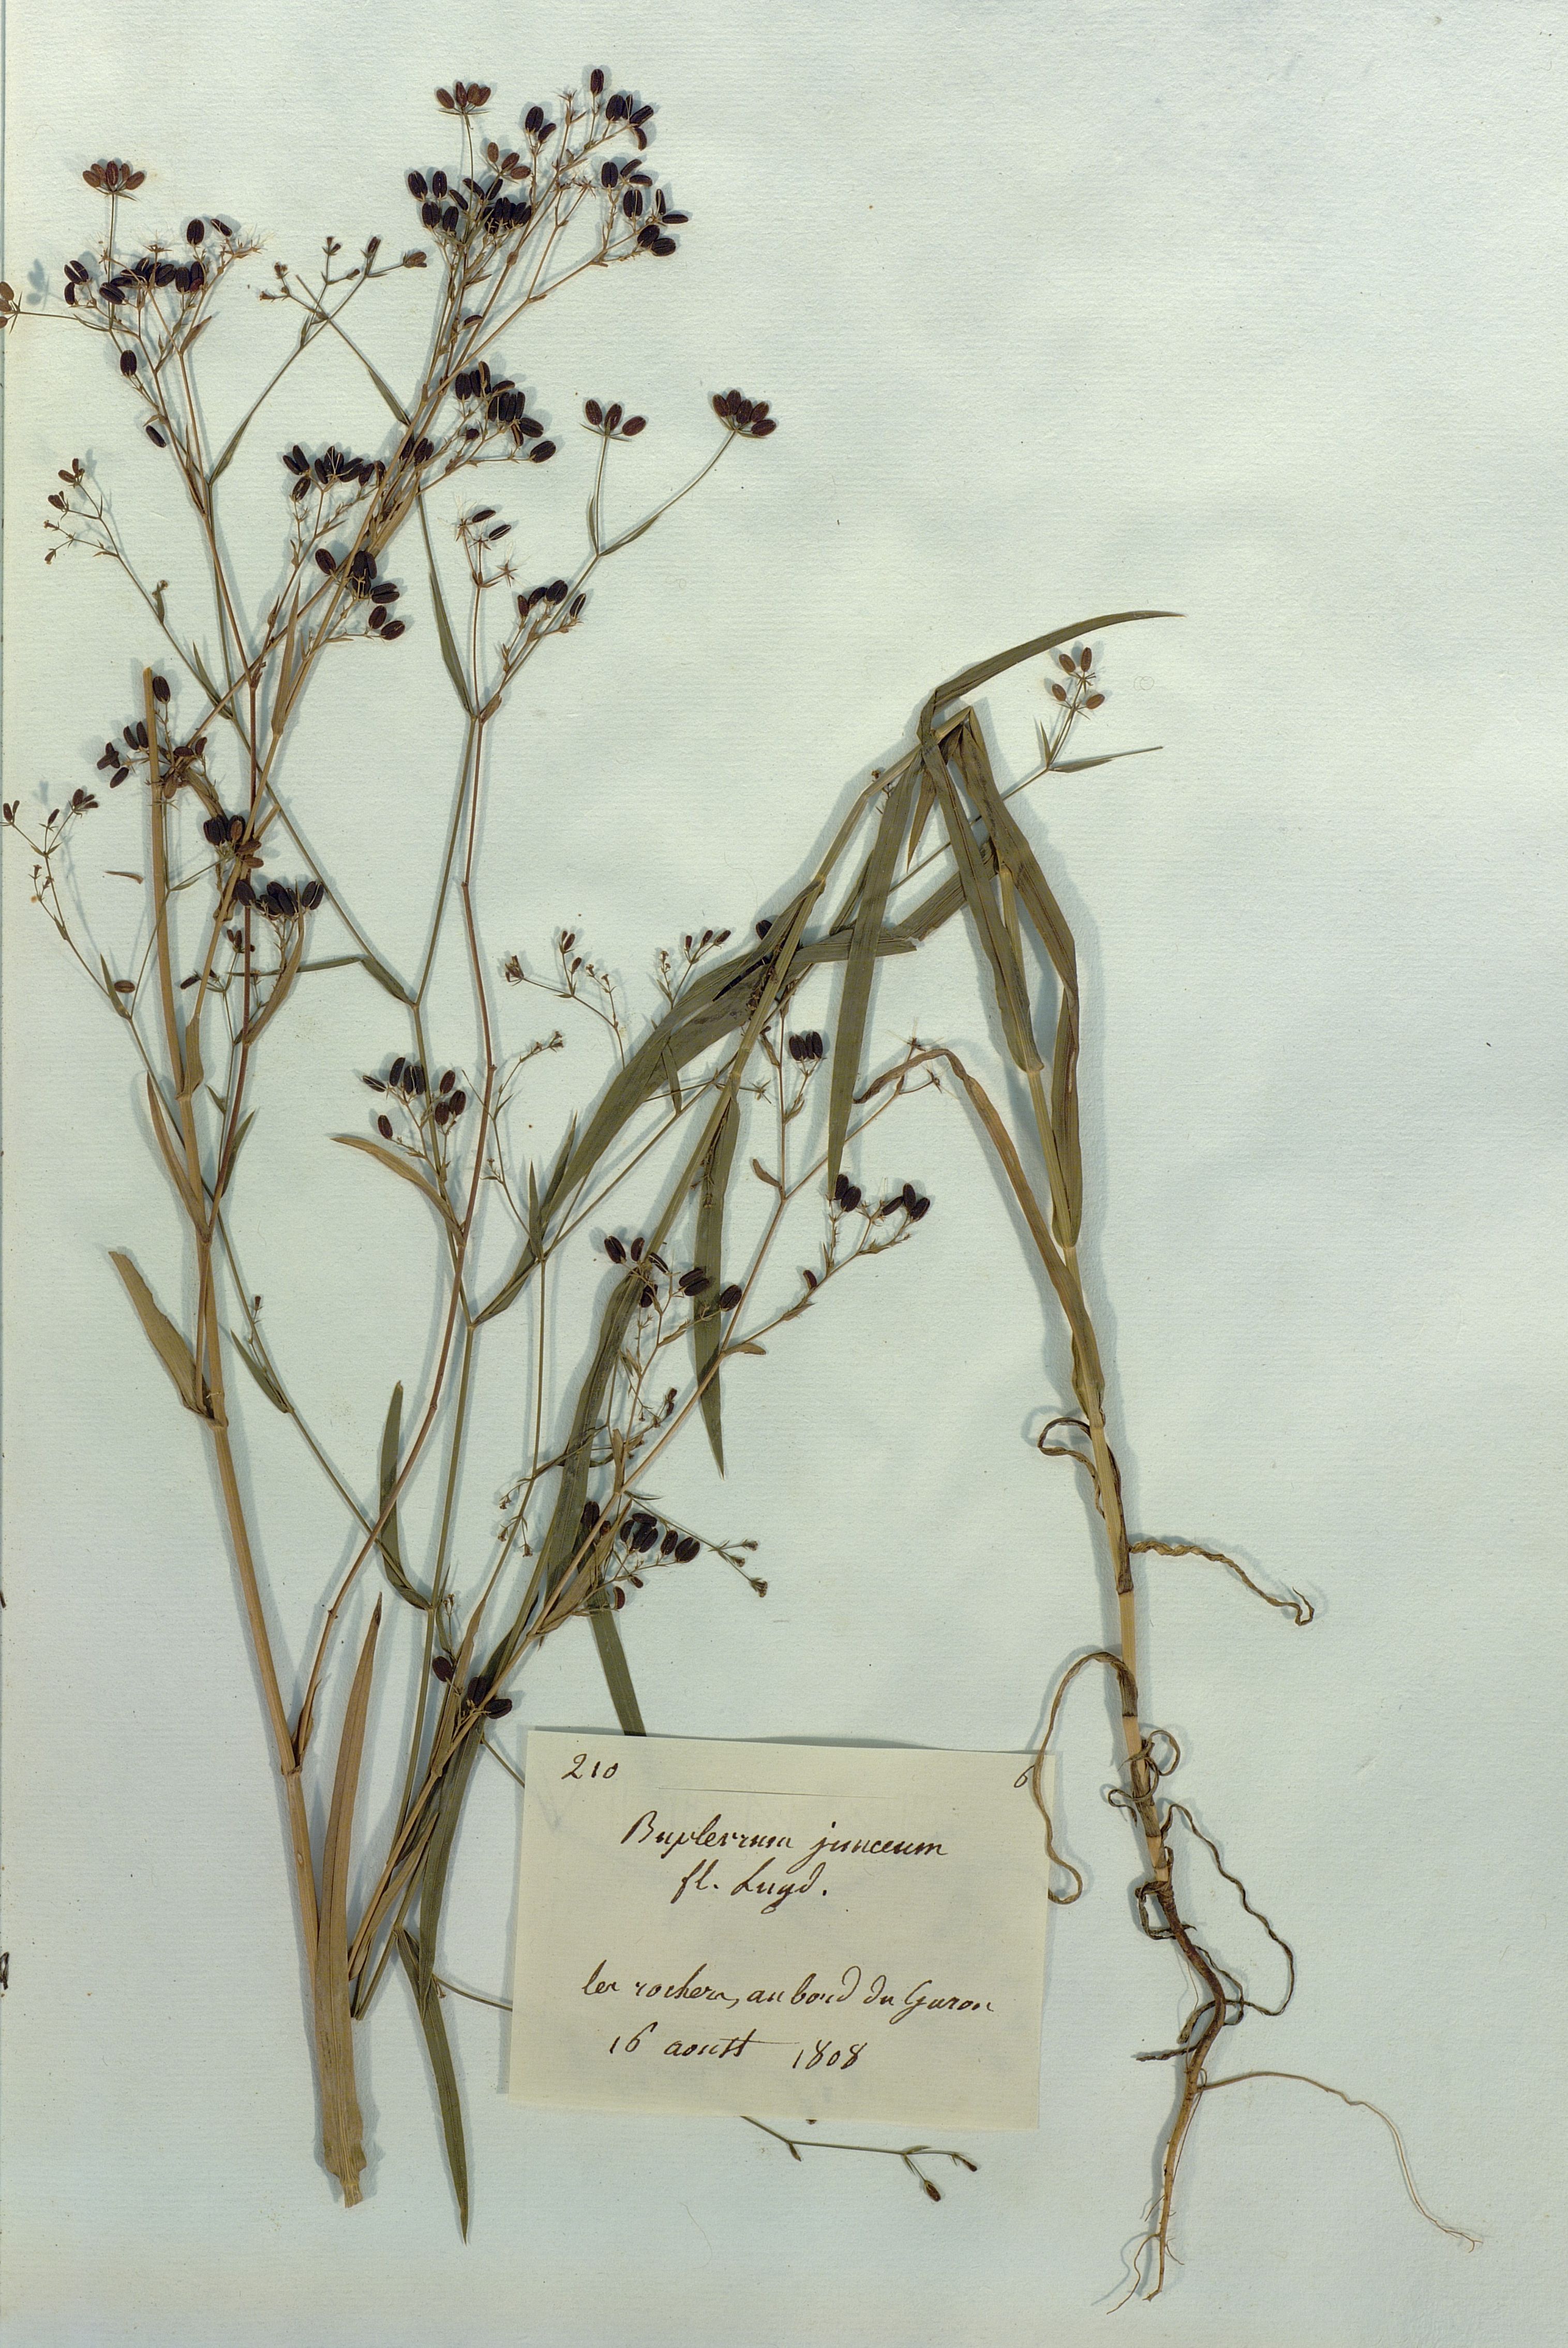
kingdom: Plantae
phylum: Tracheophyta
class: Magnoliopsida
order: Apiales
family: Apiaceae
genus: Bupleurum
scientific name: Bupleurum
